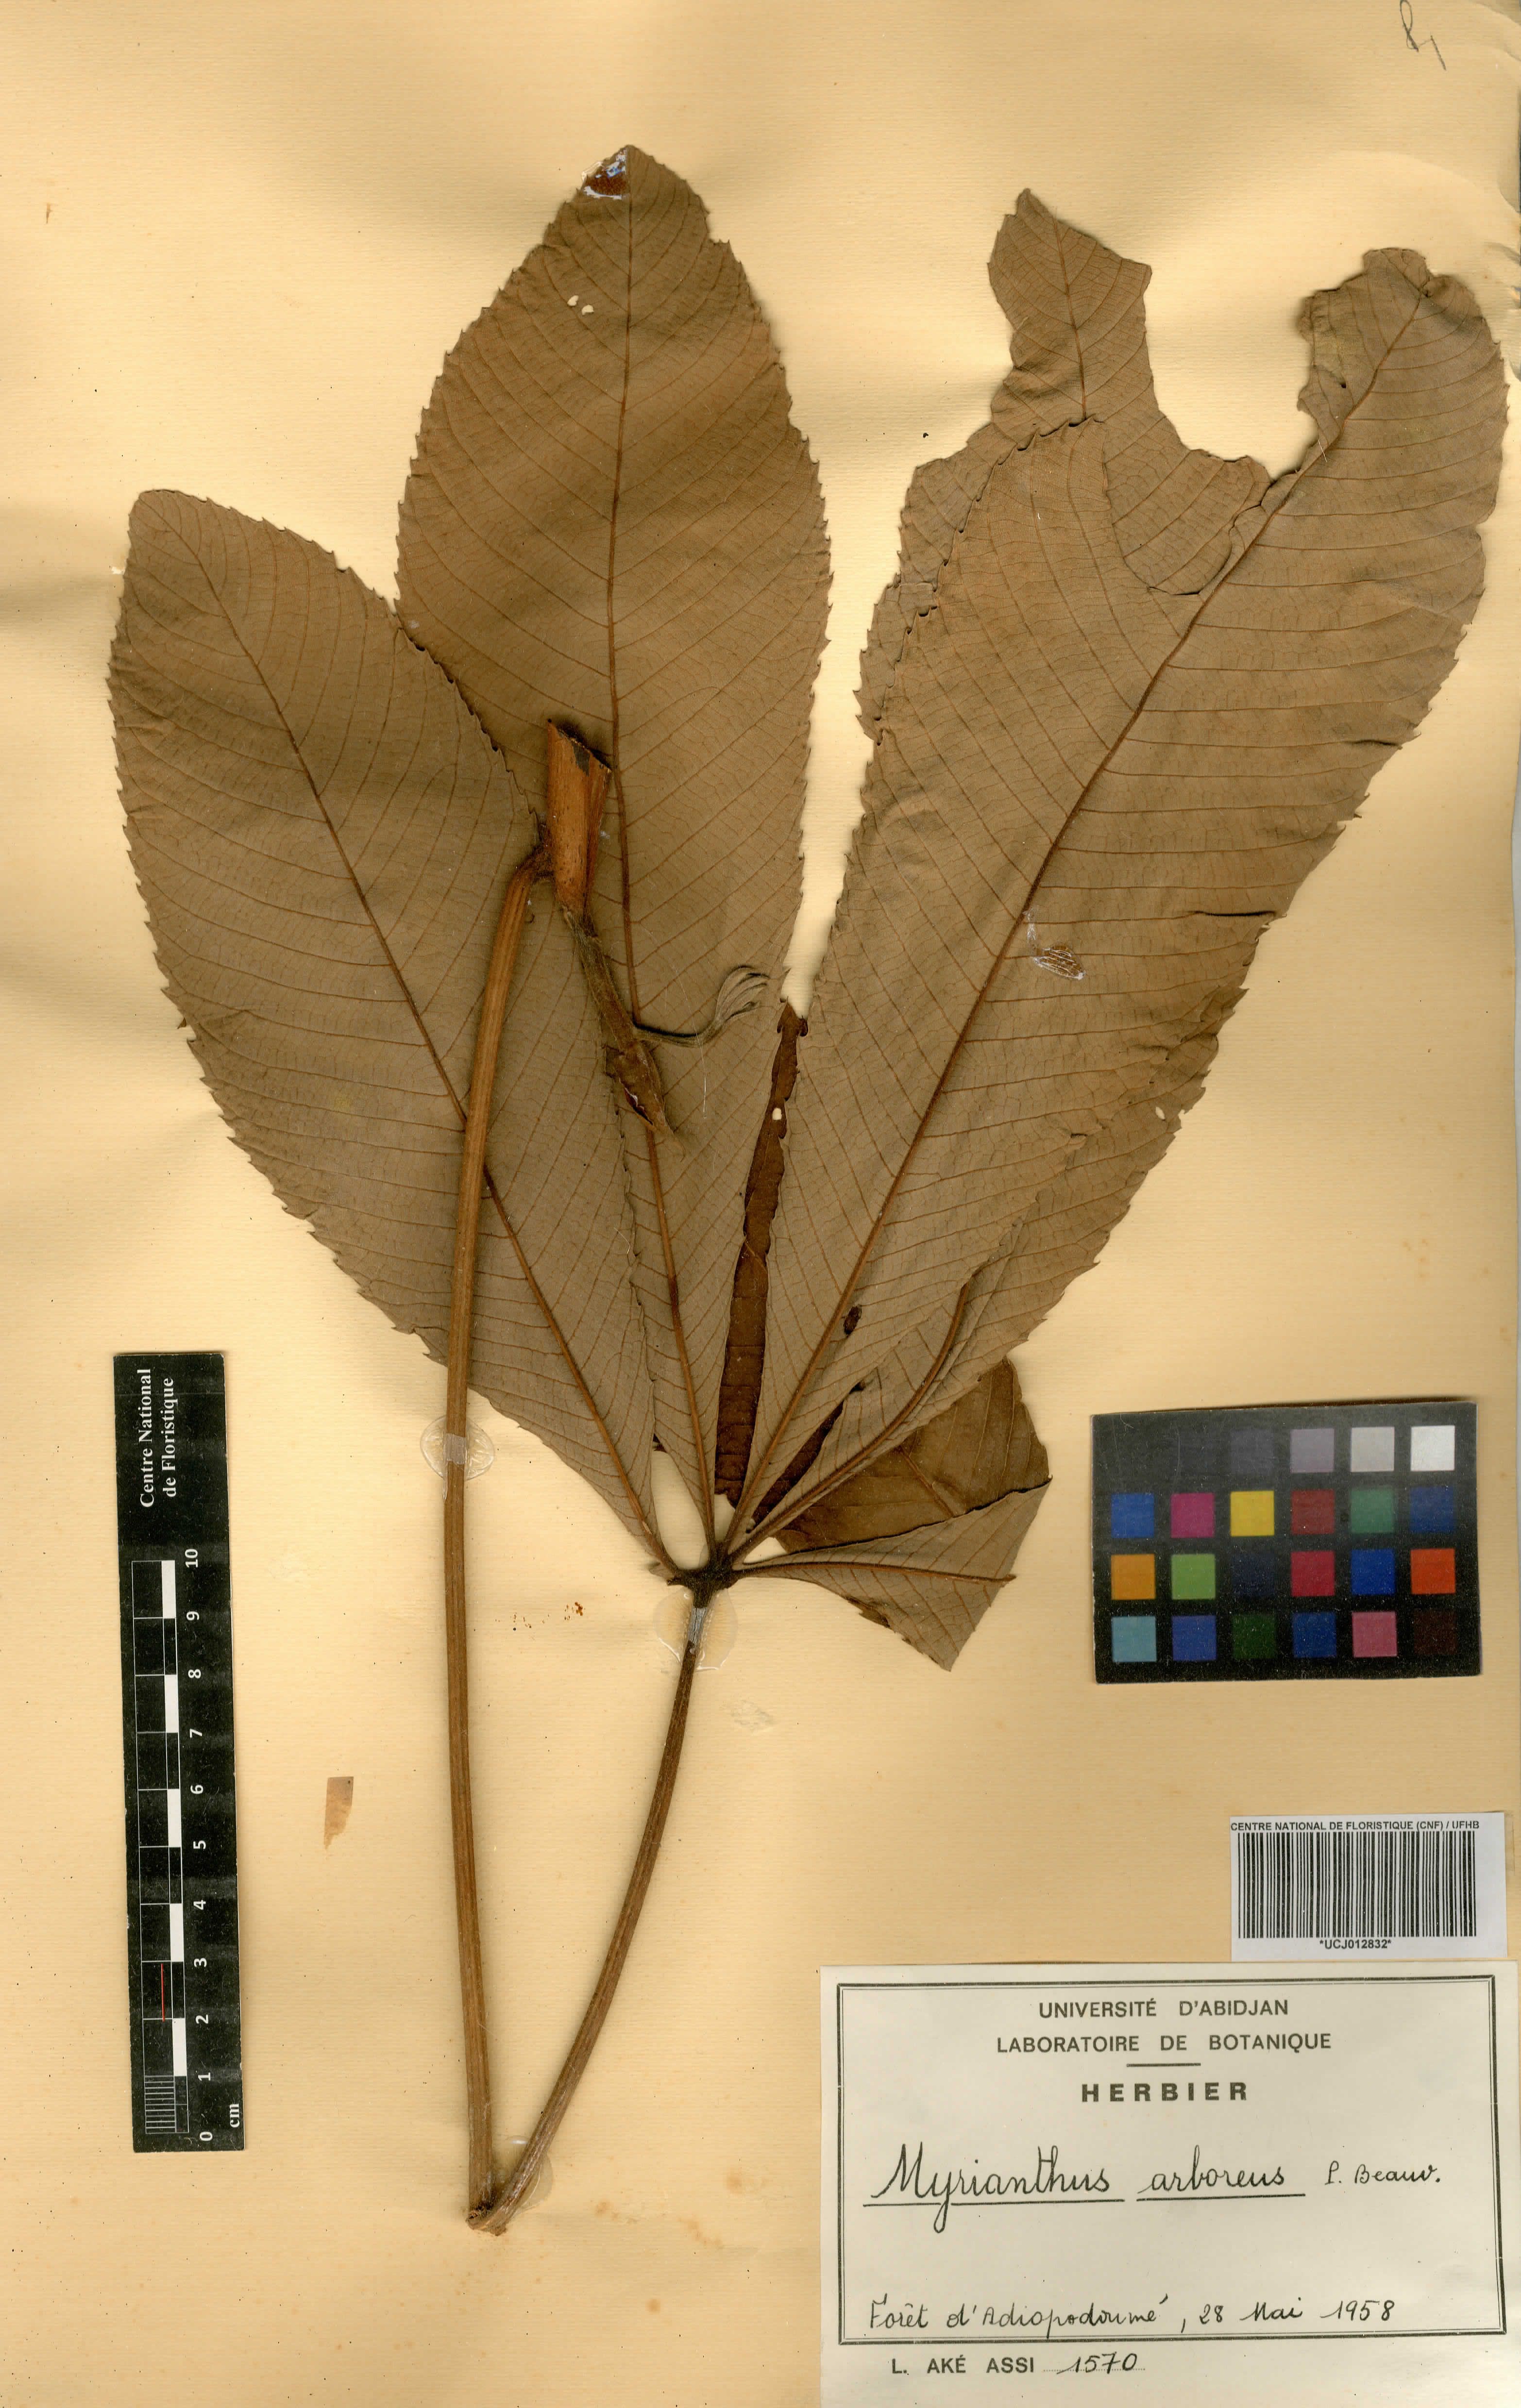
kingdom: Plantae
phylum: Tracheophyta
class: Magnoliopsida
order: Rosales
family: Urticaceae
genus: Myrianthus
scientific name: Myrianthus arboreus
